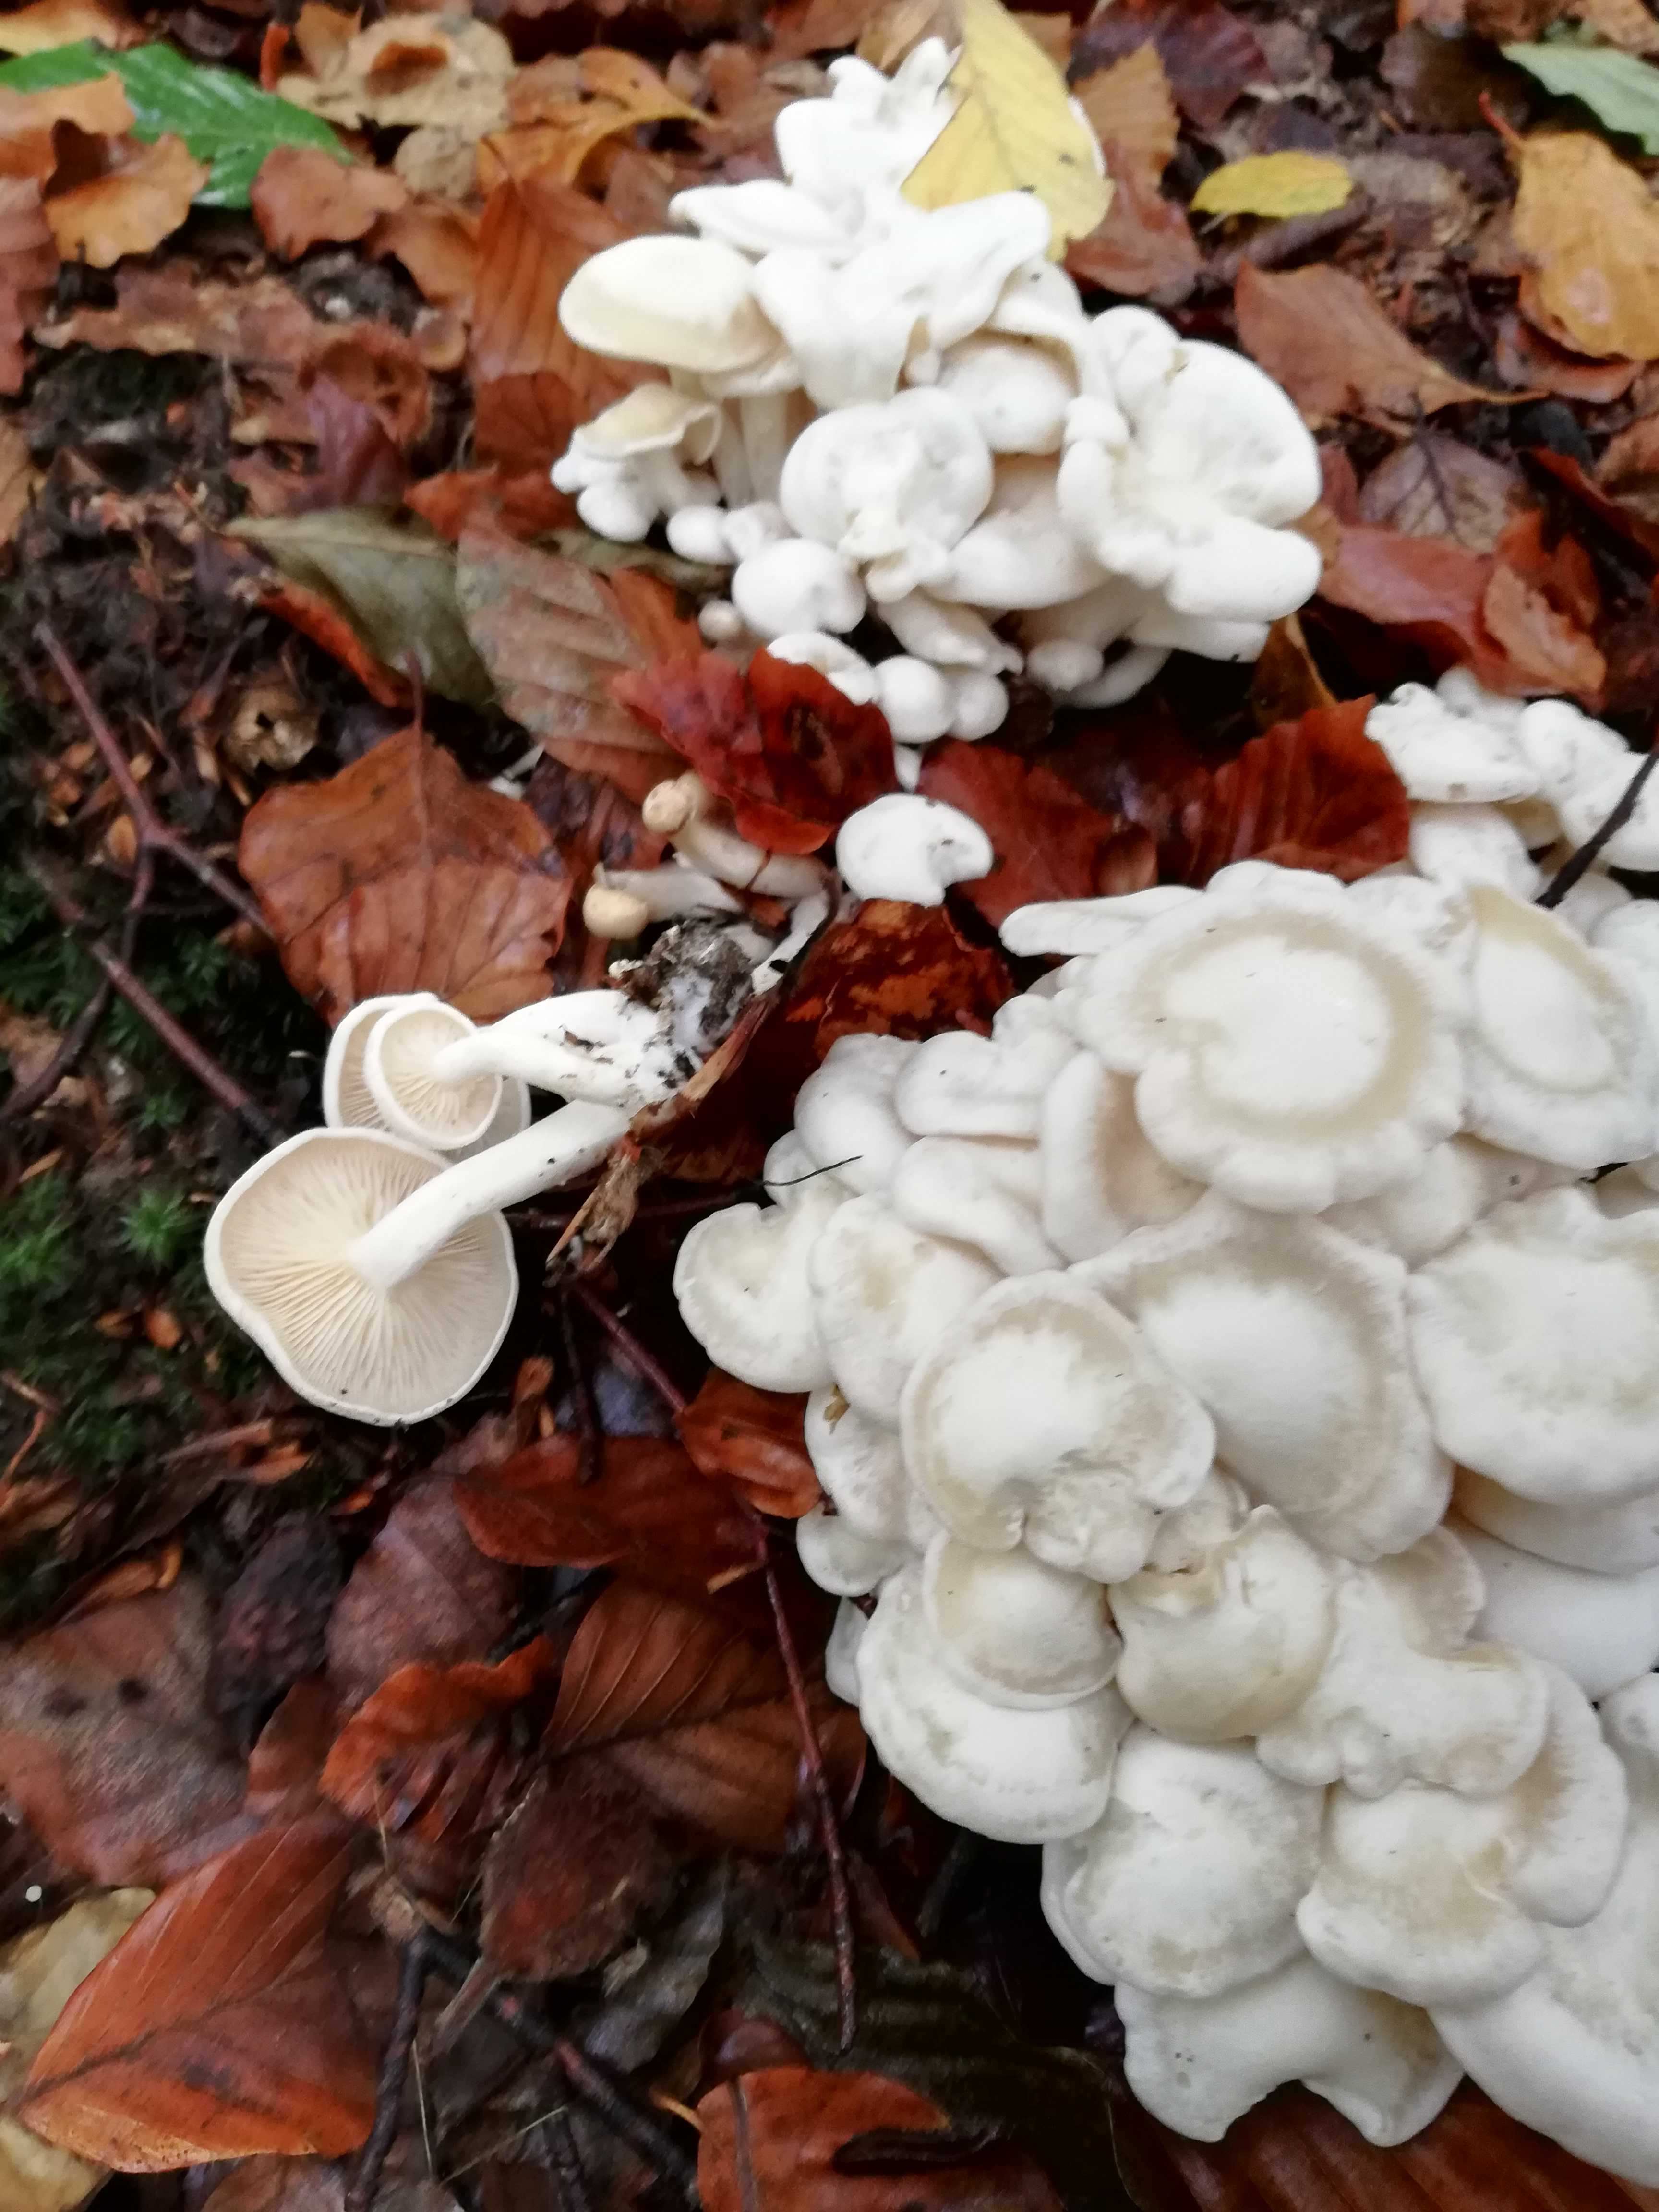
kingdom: Fungi
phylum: Basidiomycota
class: Agaricomycetes
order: Agaricales
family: Tricholomataceae
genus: Leucocybe
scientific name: Leucocybe connata
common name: knippe-tragthat
